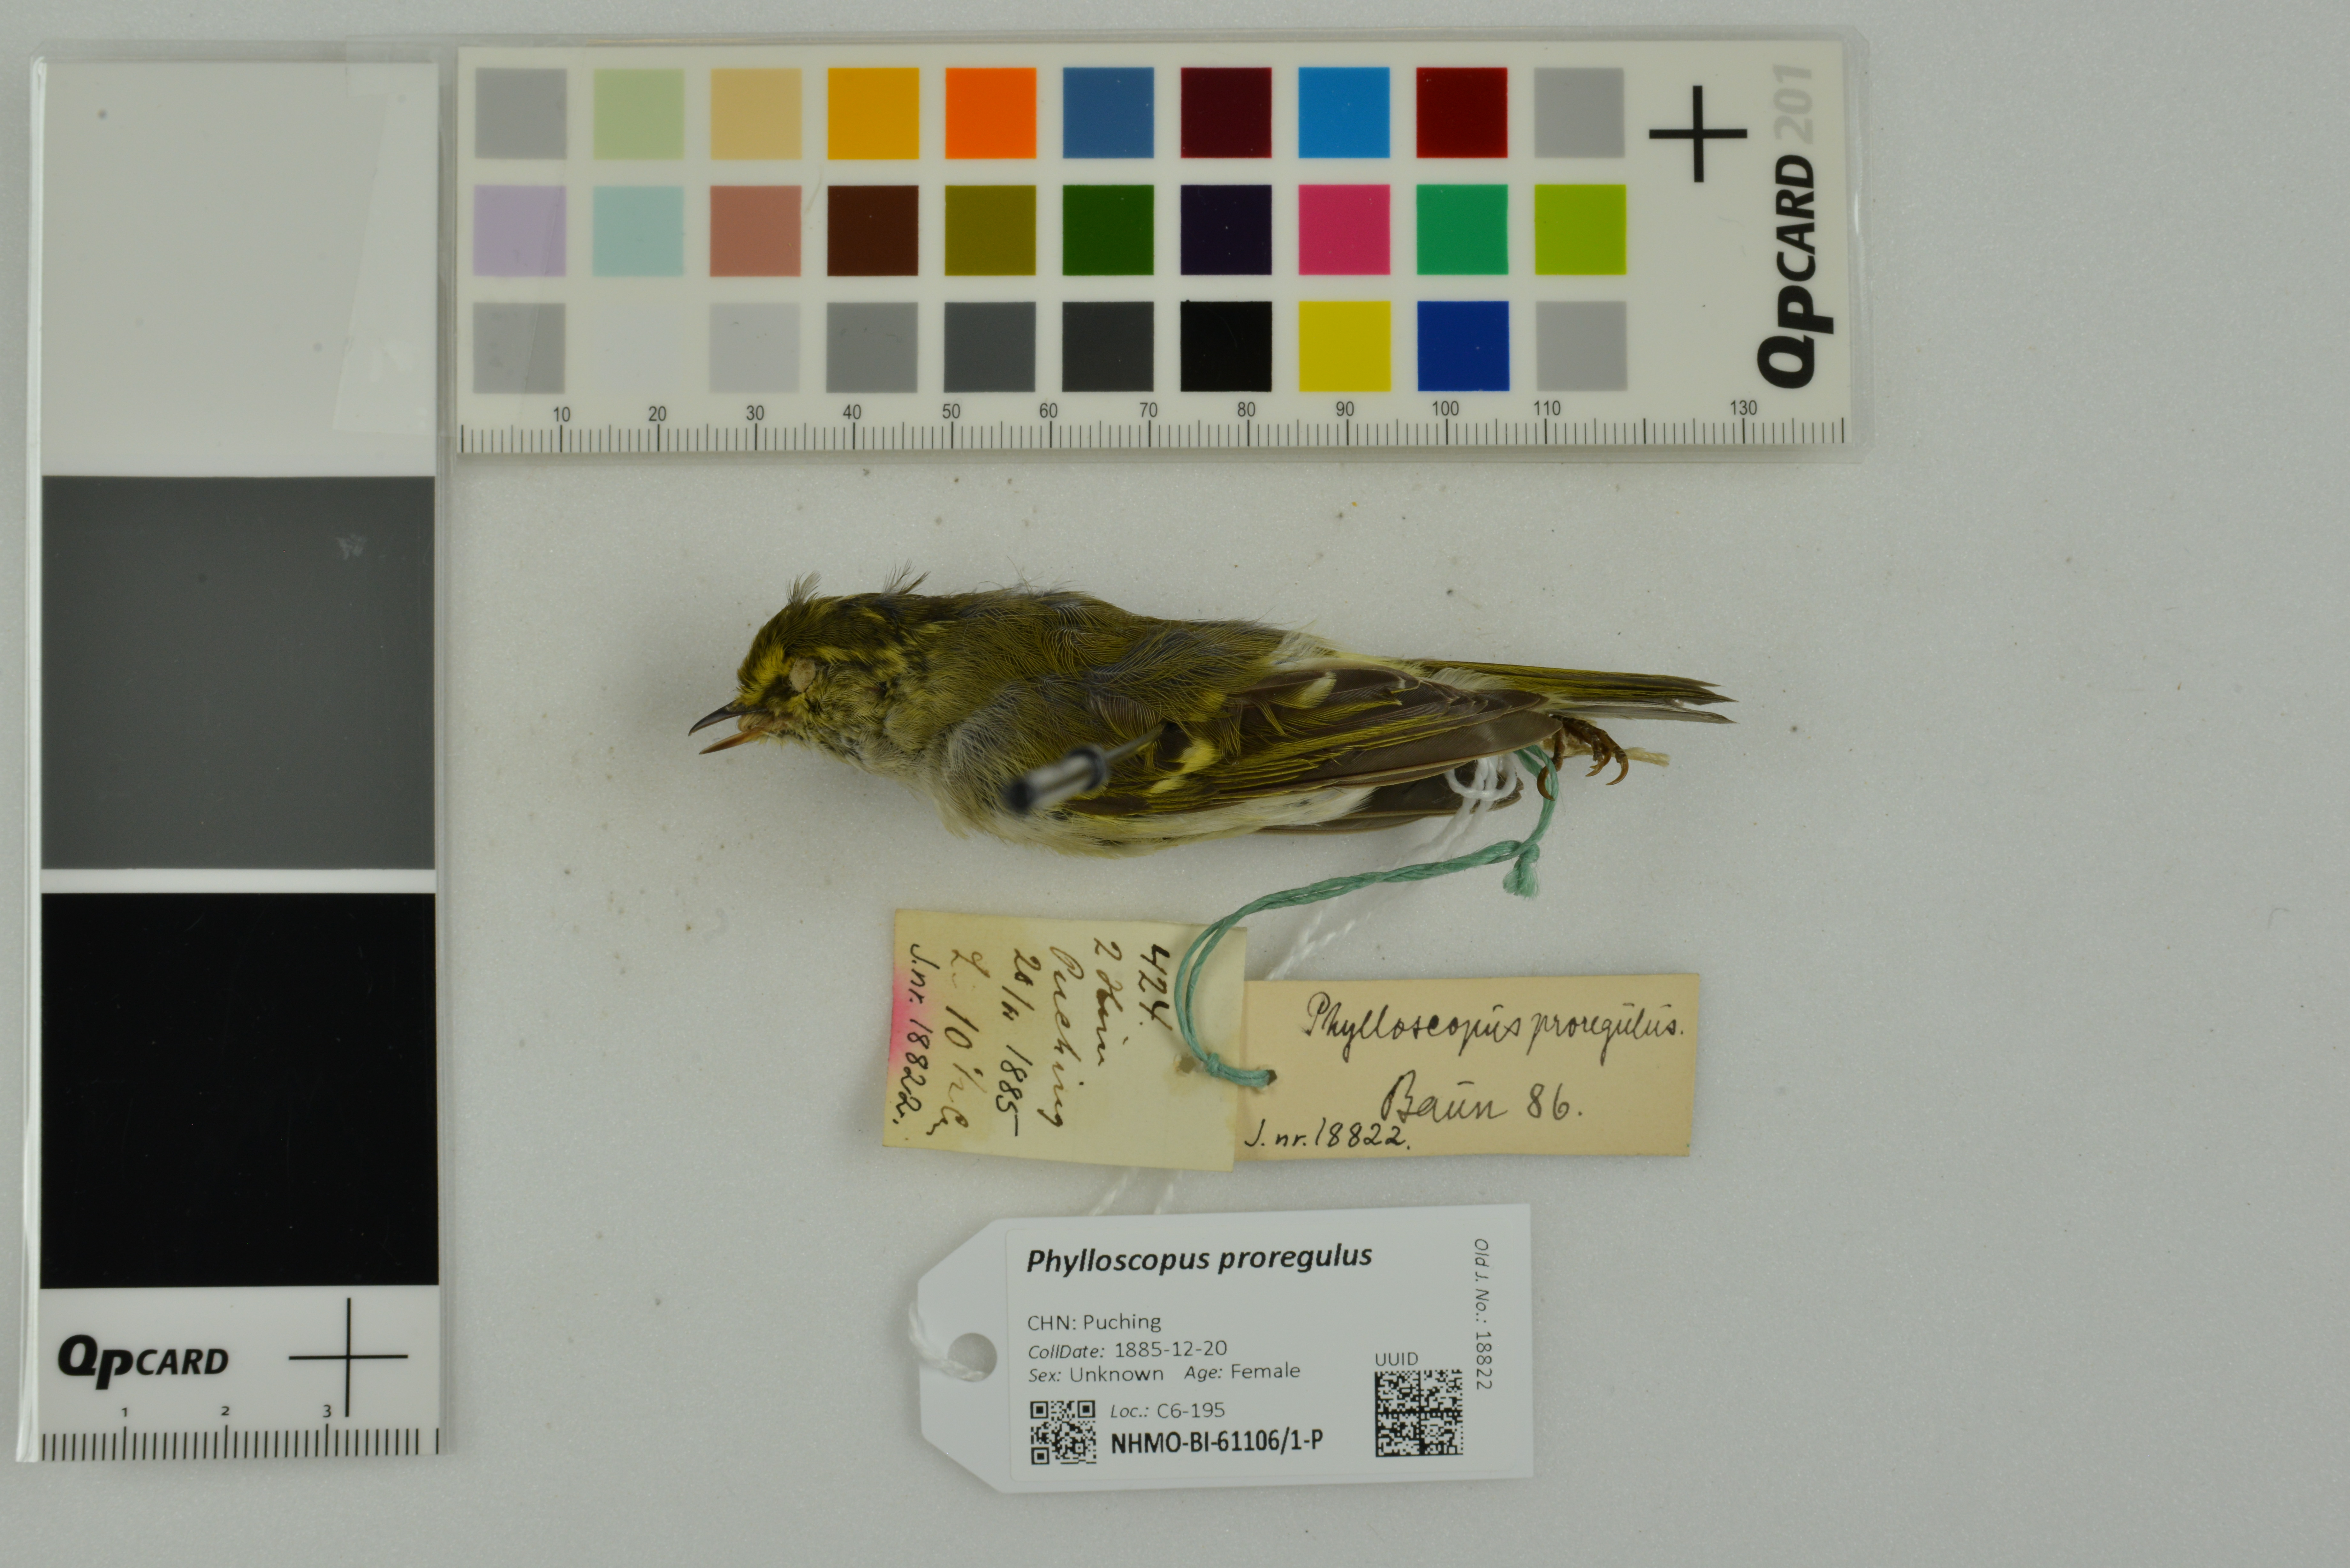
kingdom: Animalia
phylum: Chordata
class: Aves
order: Passeriformes
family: Phylloscopidae
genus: Phylloscopus
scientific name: Phylloscopus proregulus
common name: Pallas's leaf warbler
